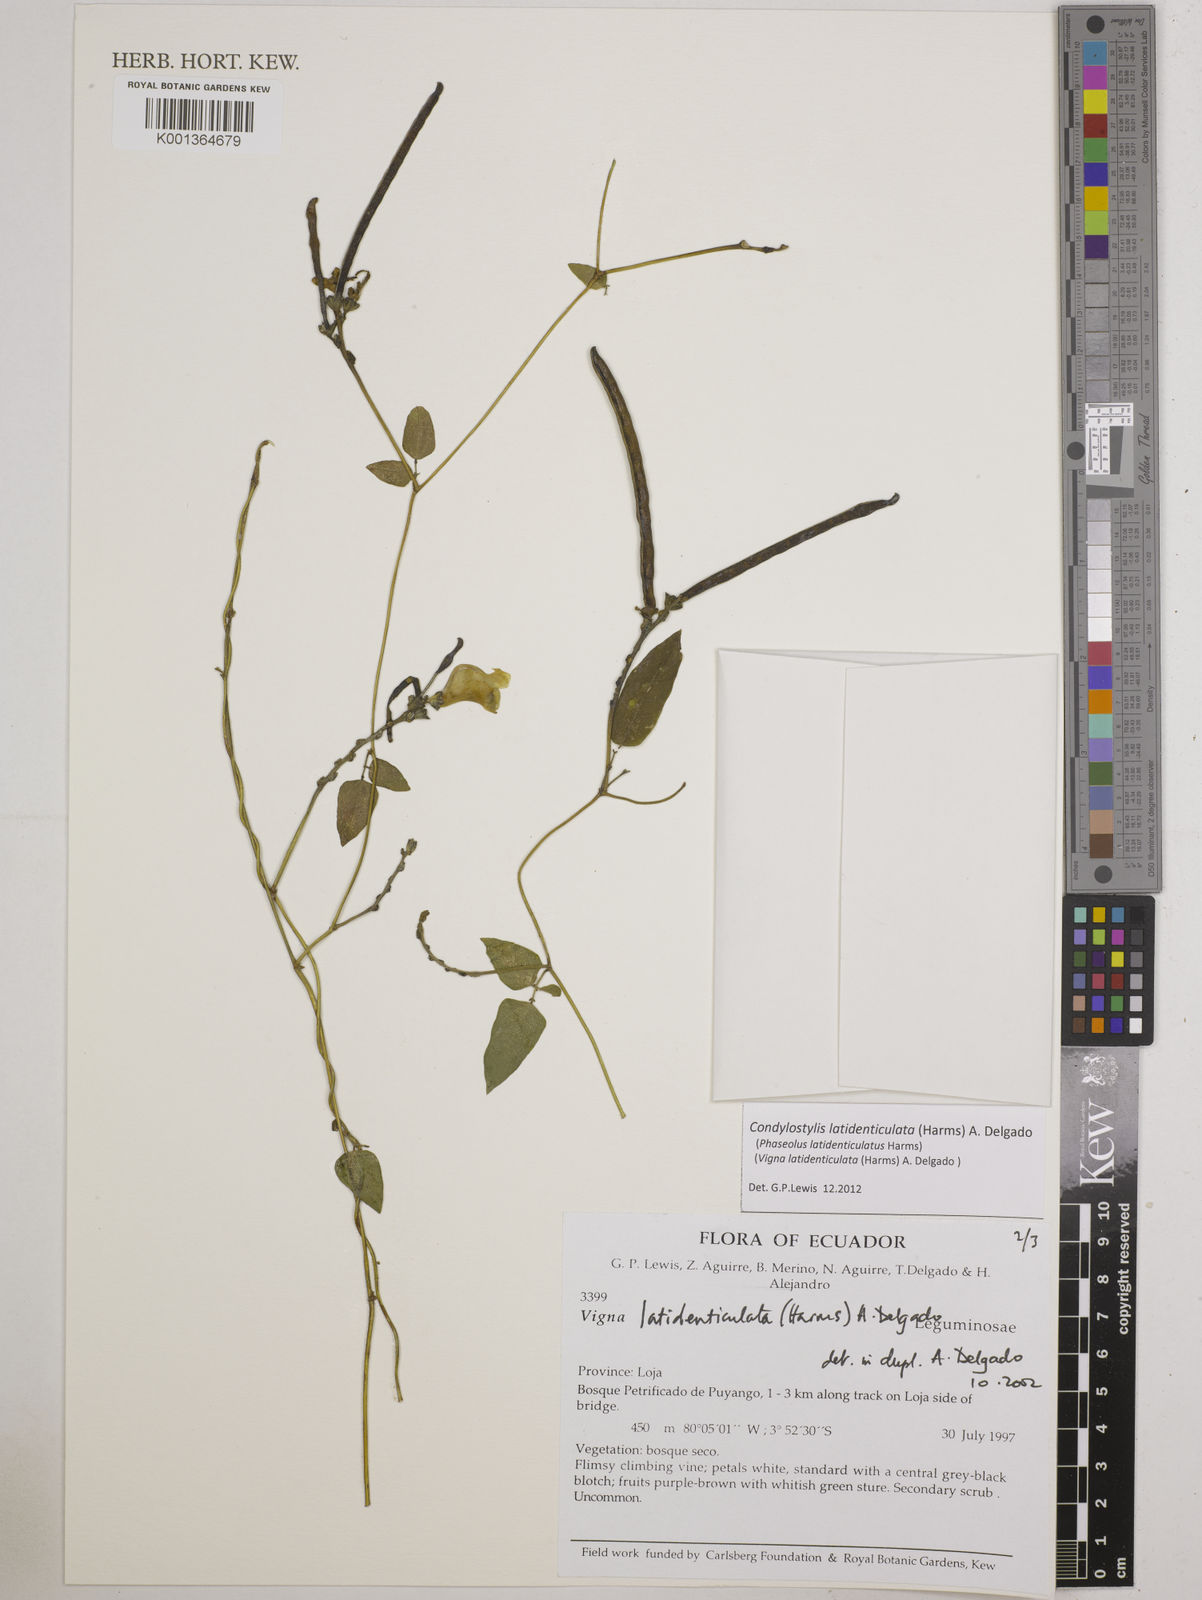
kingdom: Plantae
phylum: Tracheophyta
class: Magnoliopsida
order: Fabales
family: Fabaceae
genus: Condylostylis
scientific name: Condylostylis latidenticulata
